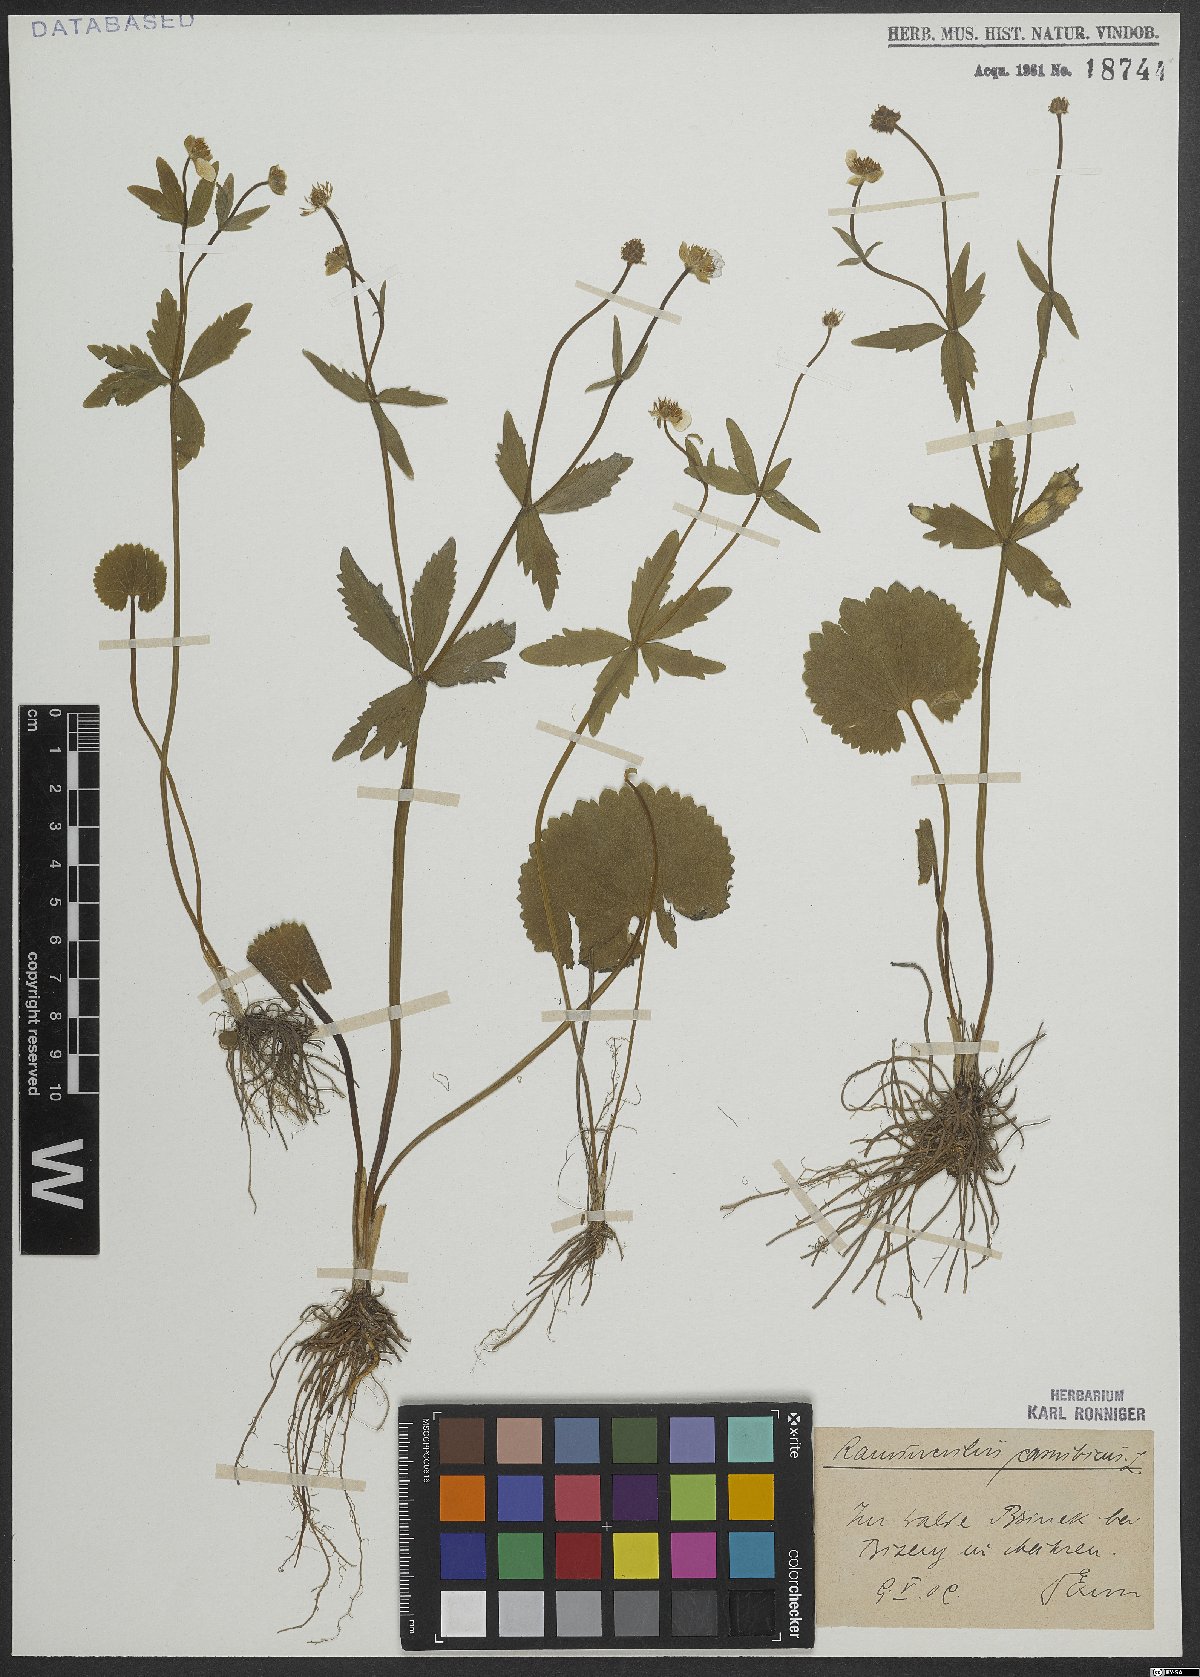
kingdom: Plantae
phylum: Tracheophyta
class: Magnoliopsida
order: Ranunculales
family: Ranunculaceae
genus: Ranunculus
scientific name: Ranunculus cassubicus
